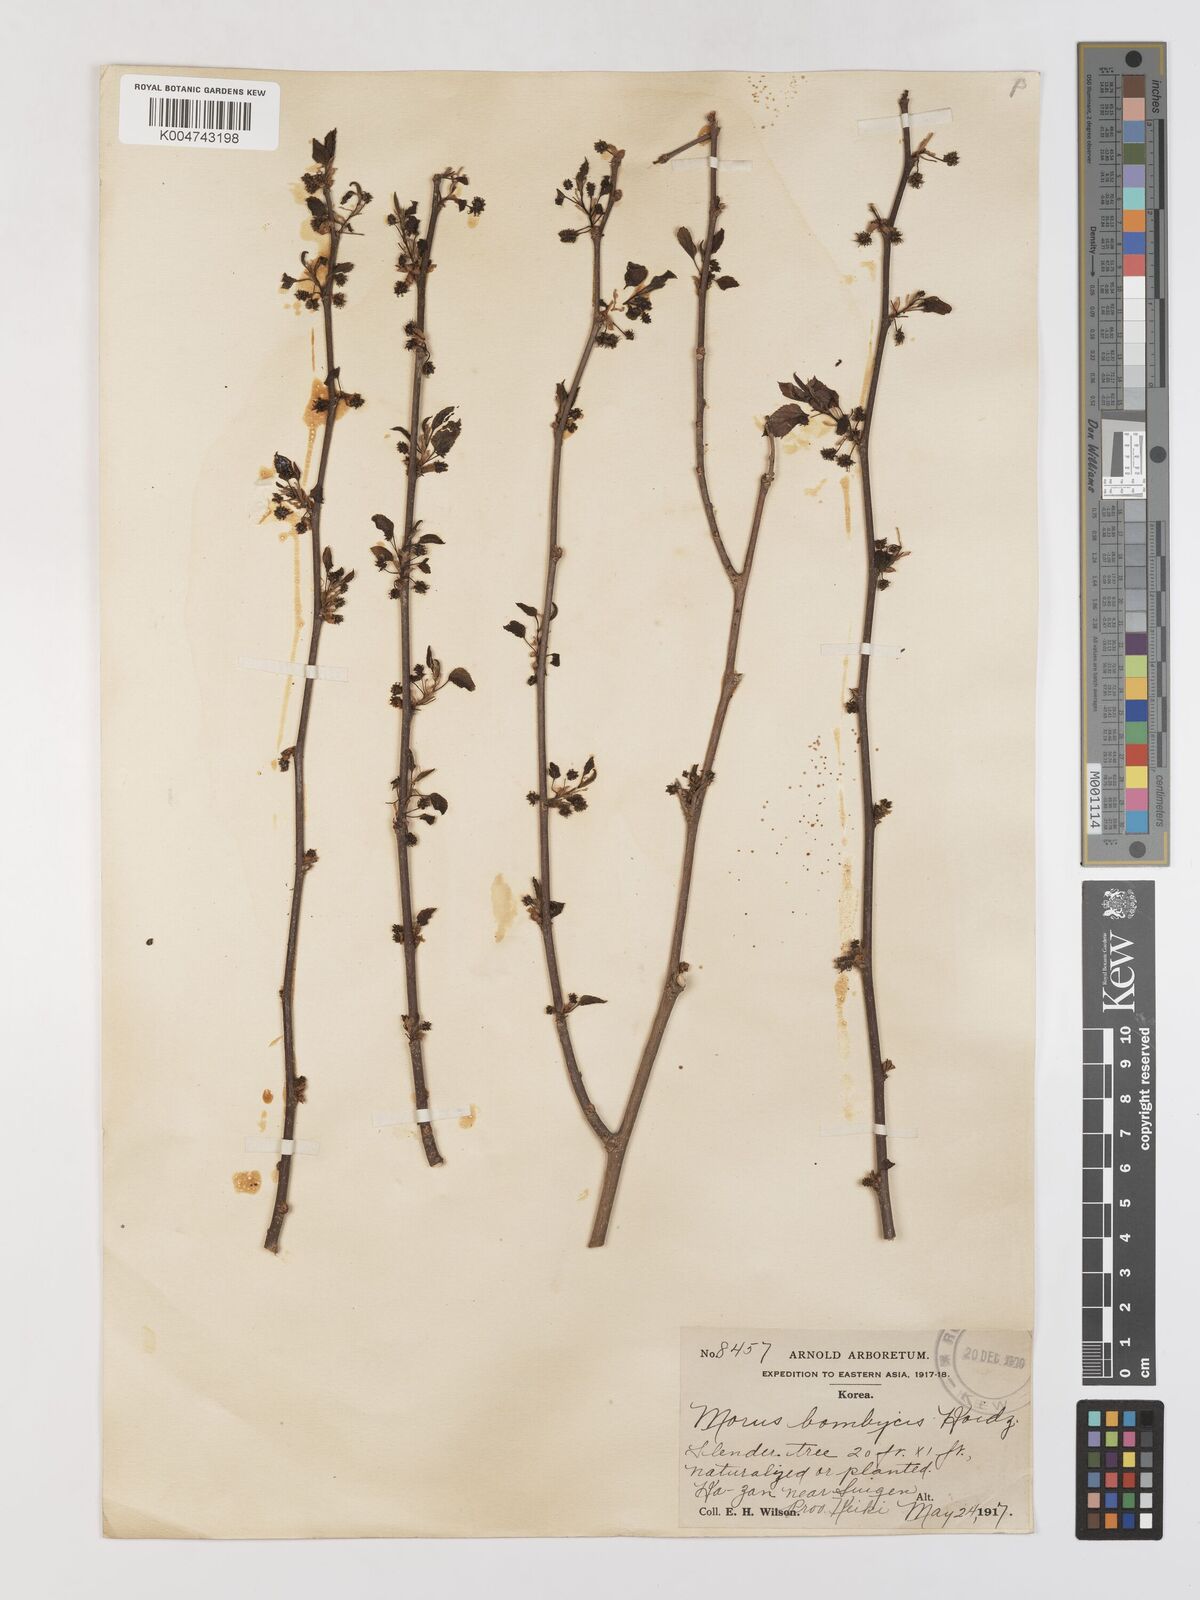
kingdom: Plantae
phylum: Tracheophyta
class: Magnoliopsida
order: Rosales
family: Moraceae
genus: Morus
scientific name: Morus indica
